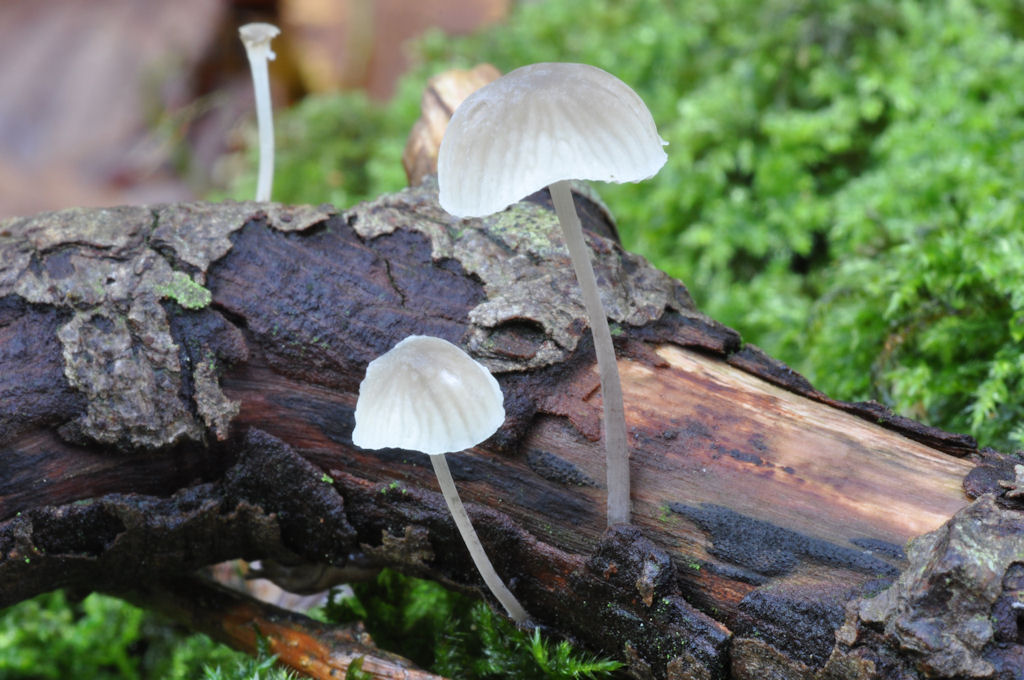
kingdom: Fungi
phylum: Basidiomycota
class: Agaricomycetes
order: Agaricales
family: Porotheleaceae
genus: Phloeomana
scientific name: Phloeomana hiemalis
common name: sen huesvamp
